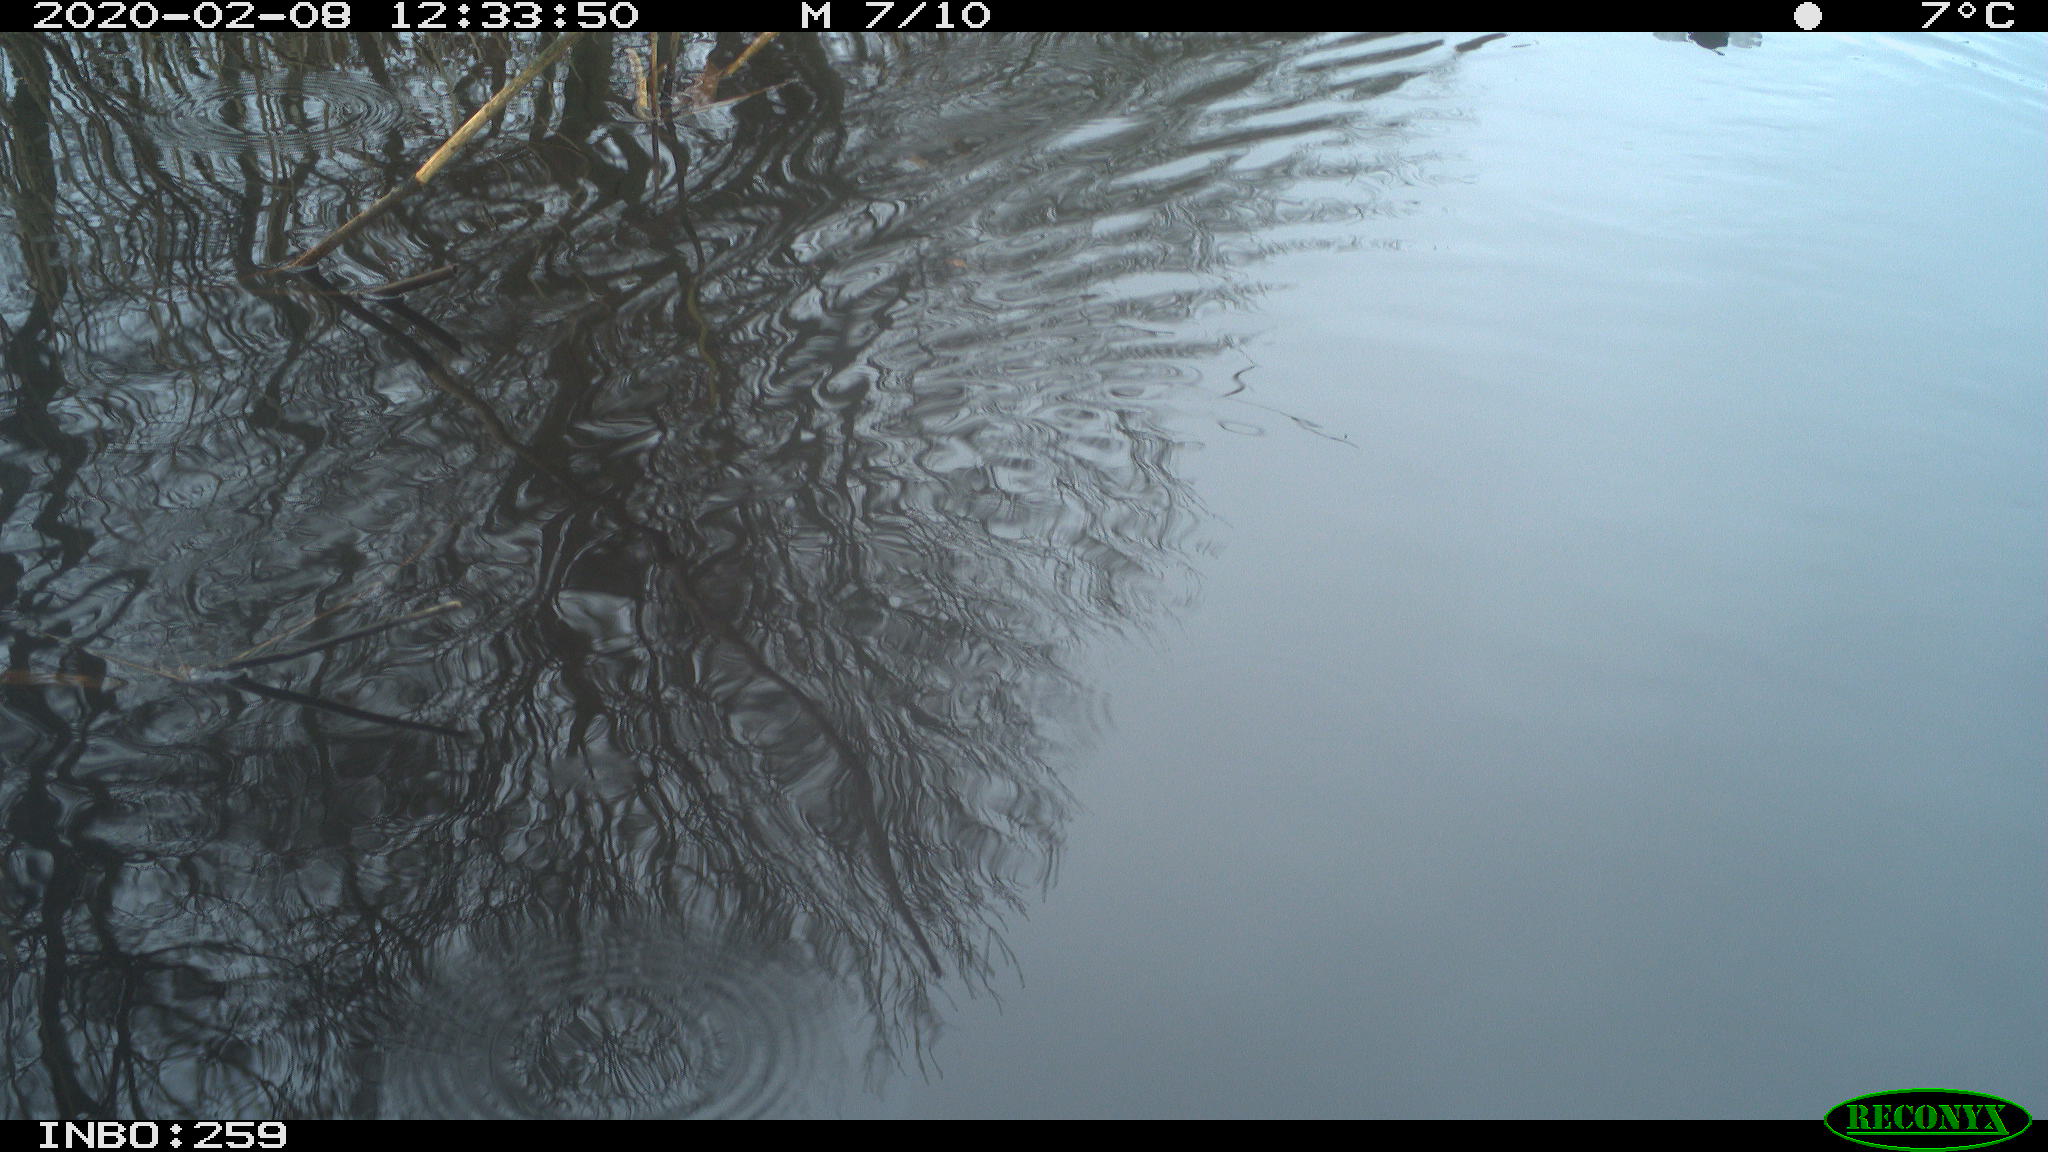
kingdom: Animalia
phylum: Chordata
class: Aves
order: Gruiformes
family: Rallidae
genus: Gallinula
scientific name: Gallinula chloropus
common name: Common moorhen
